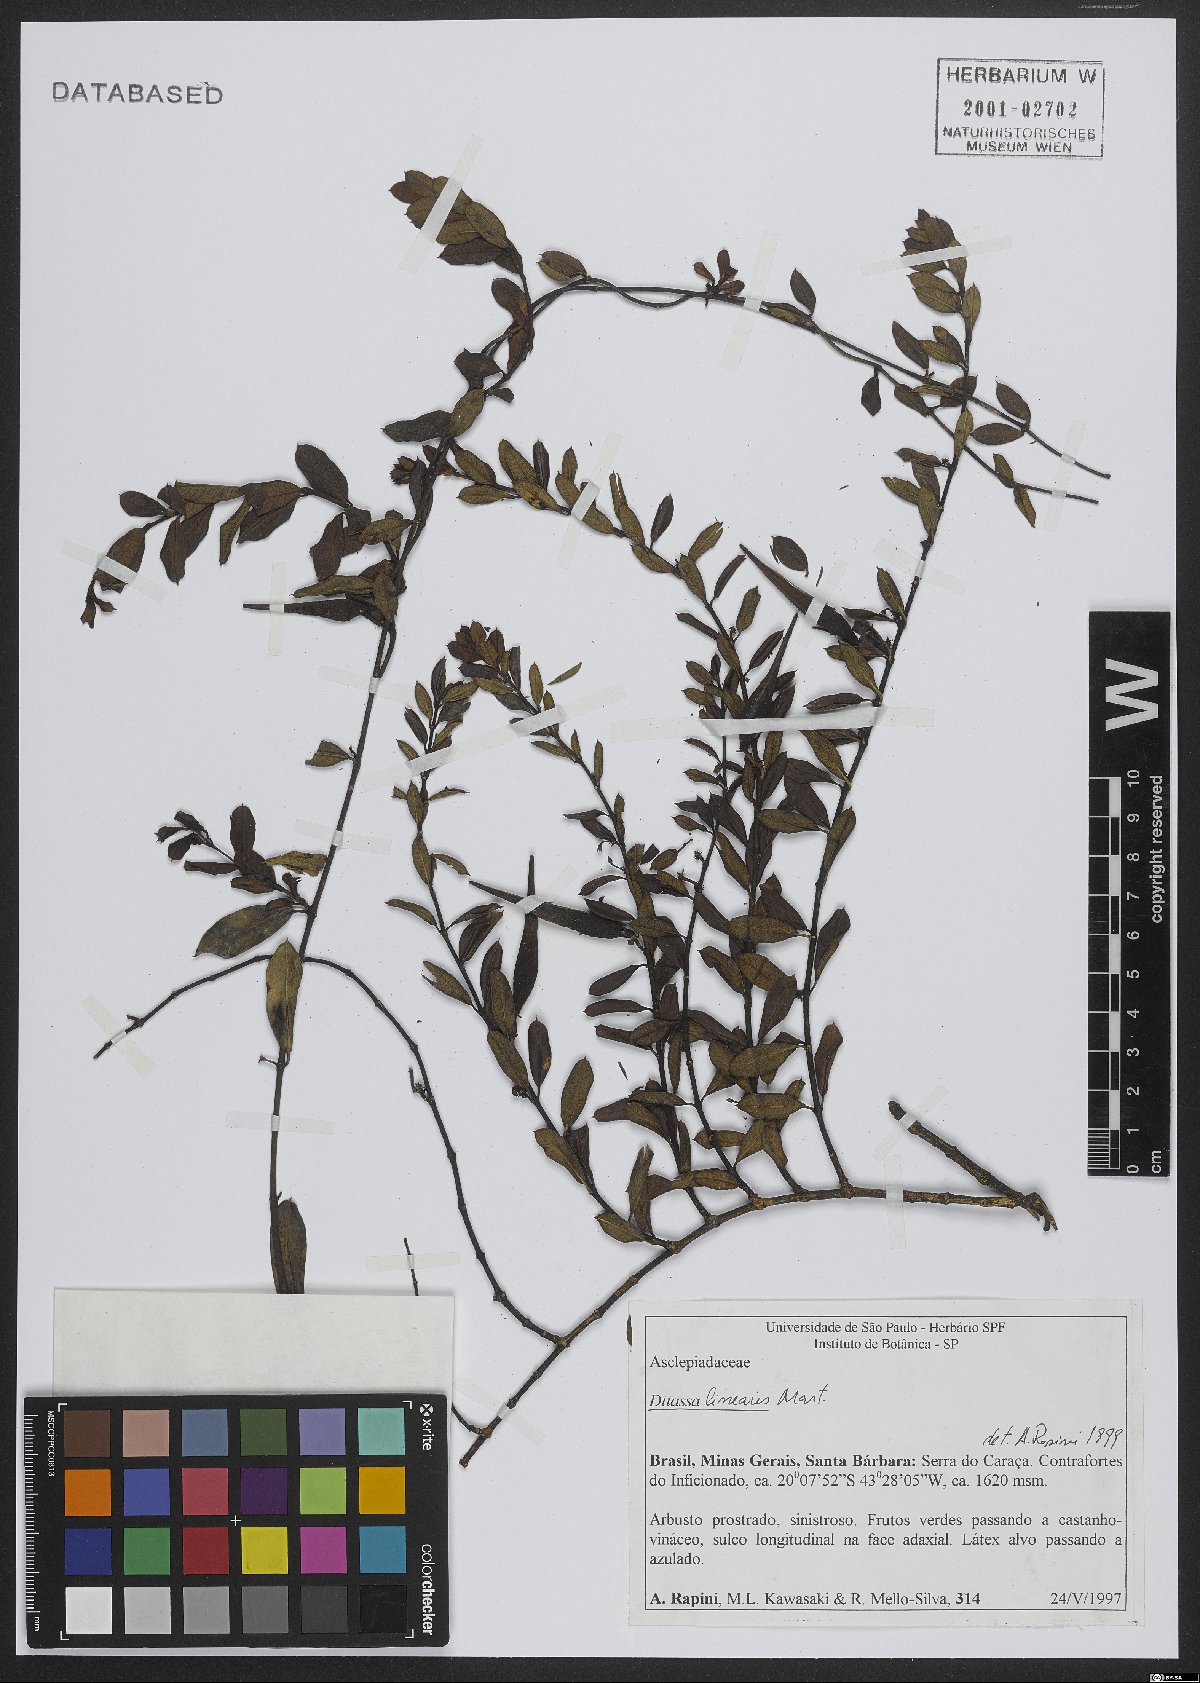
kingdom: Plantae
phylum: Tracheophyta
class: Magnoliopsida
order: Gentianales
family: Apocynaceae
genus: Ditassa
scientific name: Ditassa linearis
